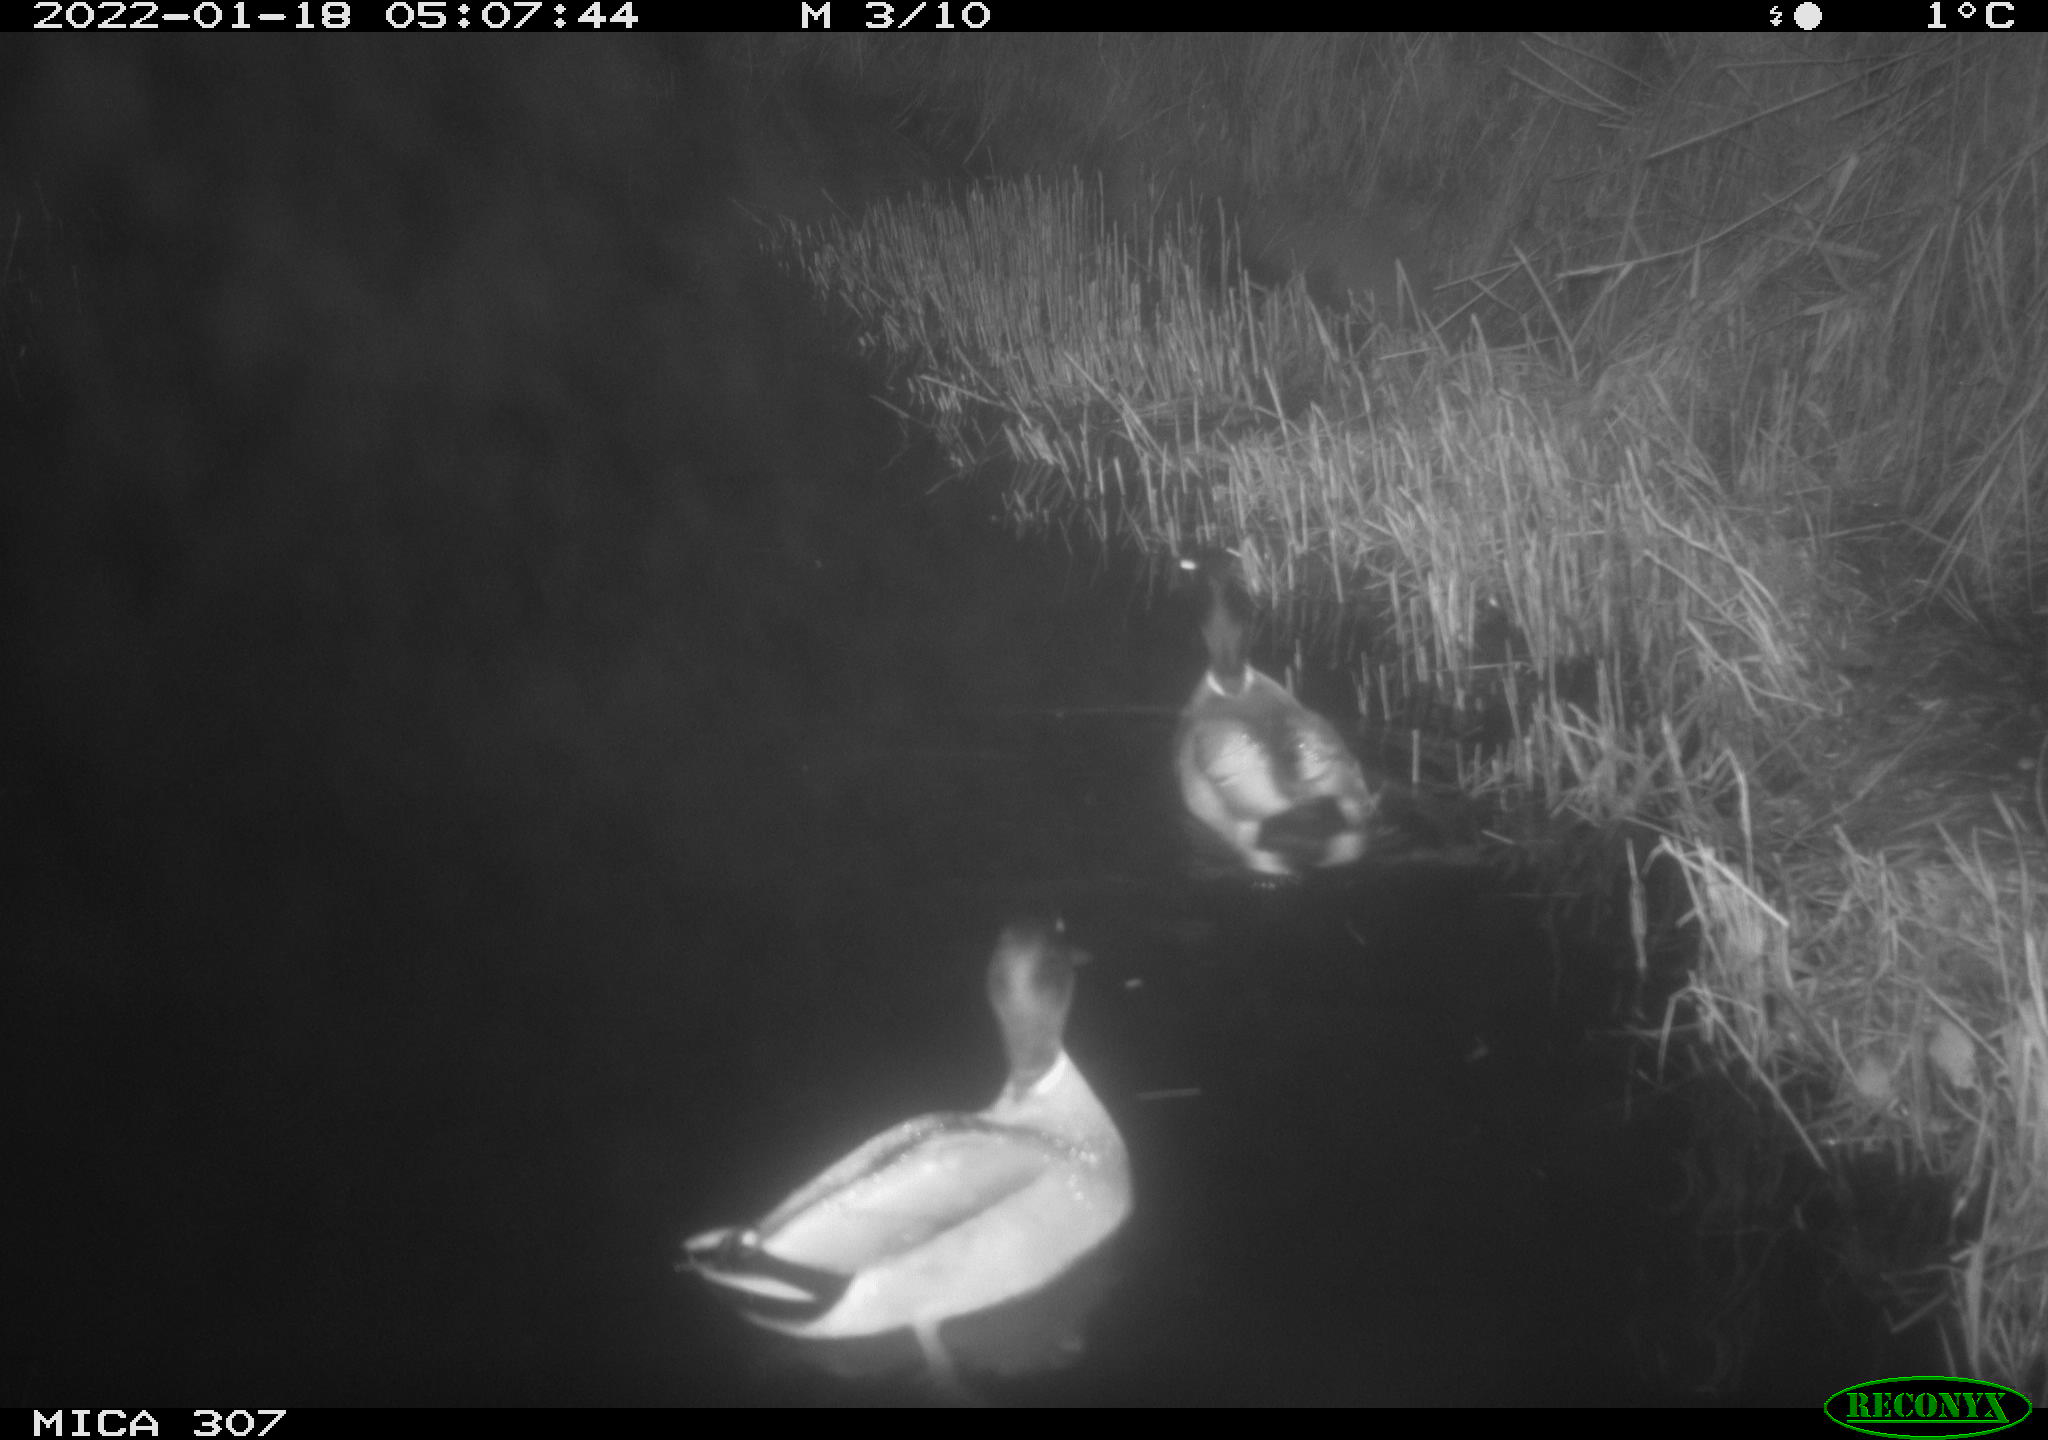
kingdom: Animalia
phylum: Chordata
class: Aves
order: Anseriformes
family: Anatidae
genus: Anas
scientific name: Anas platyrhynchos
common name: Mallard
